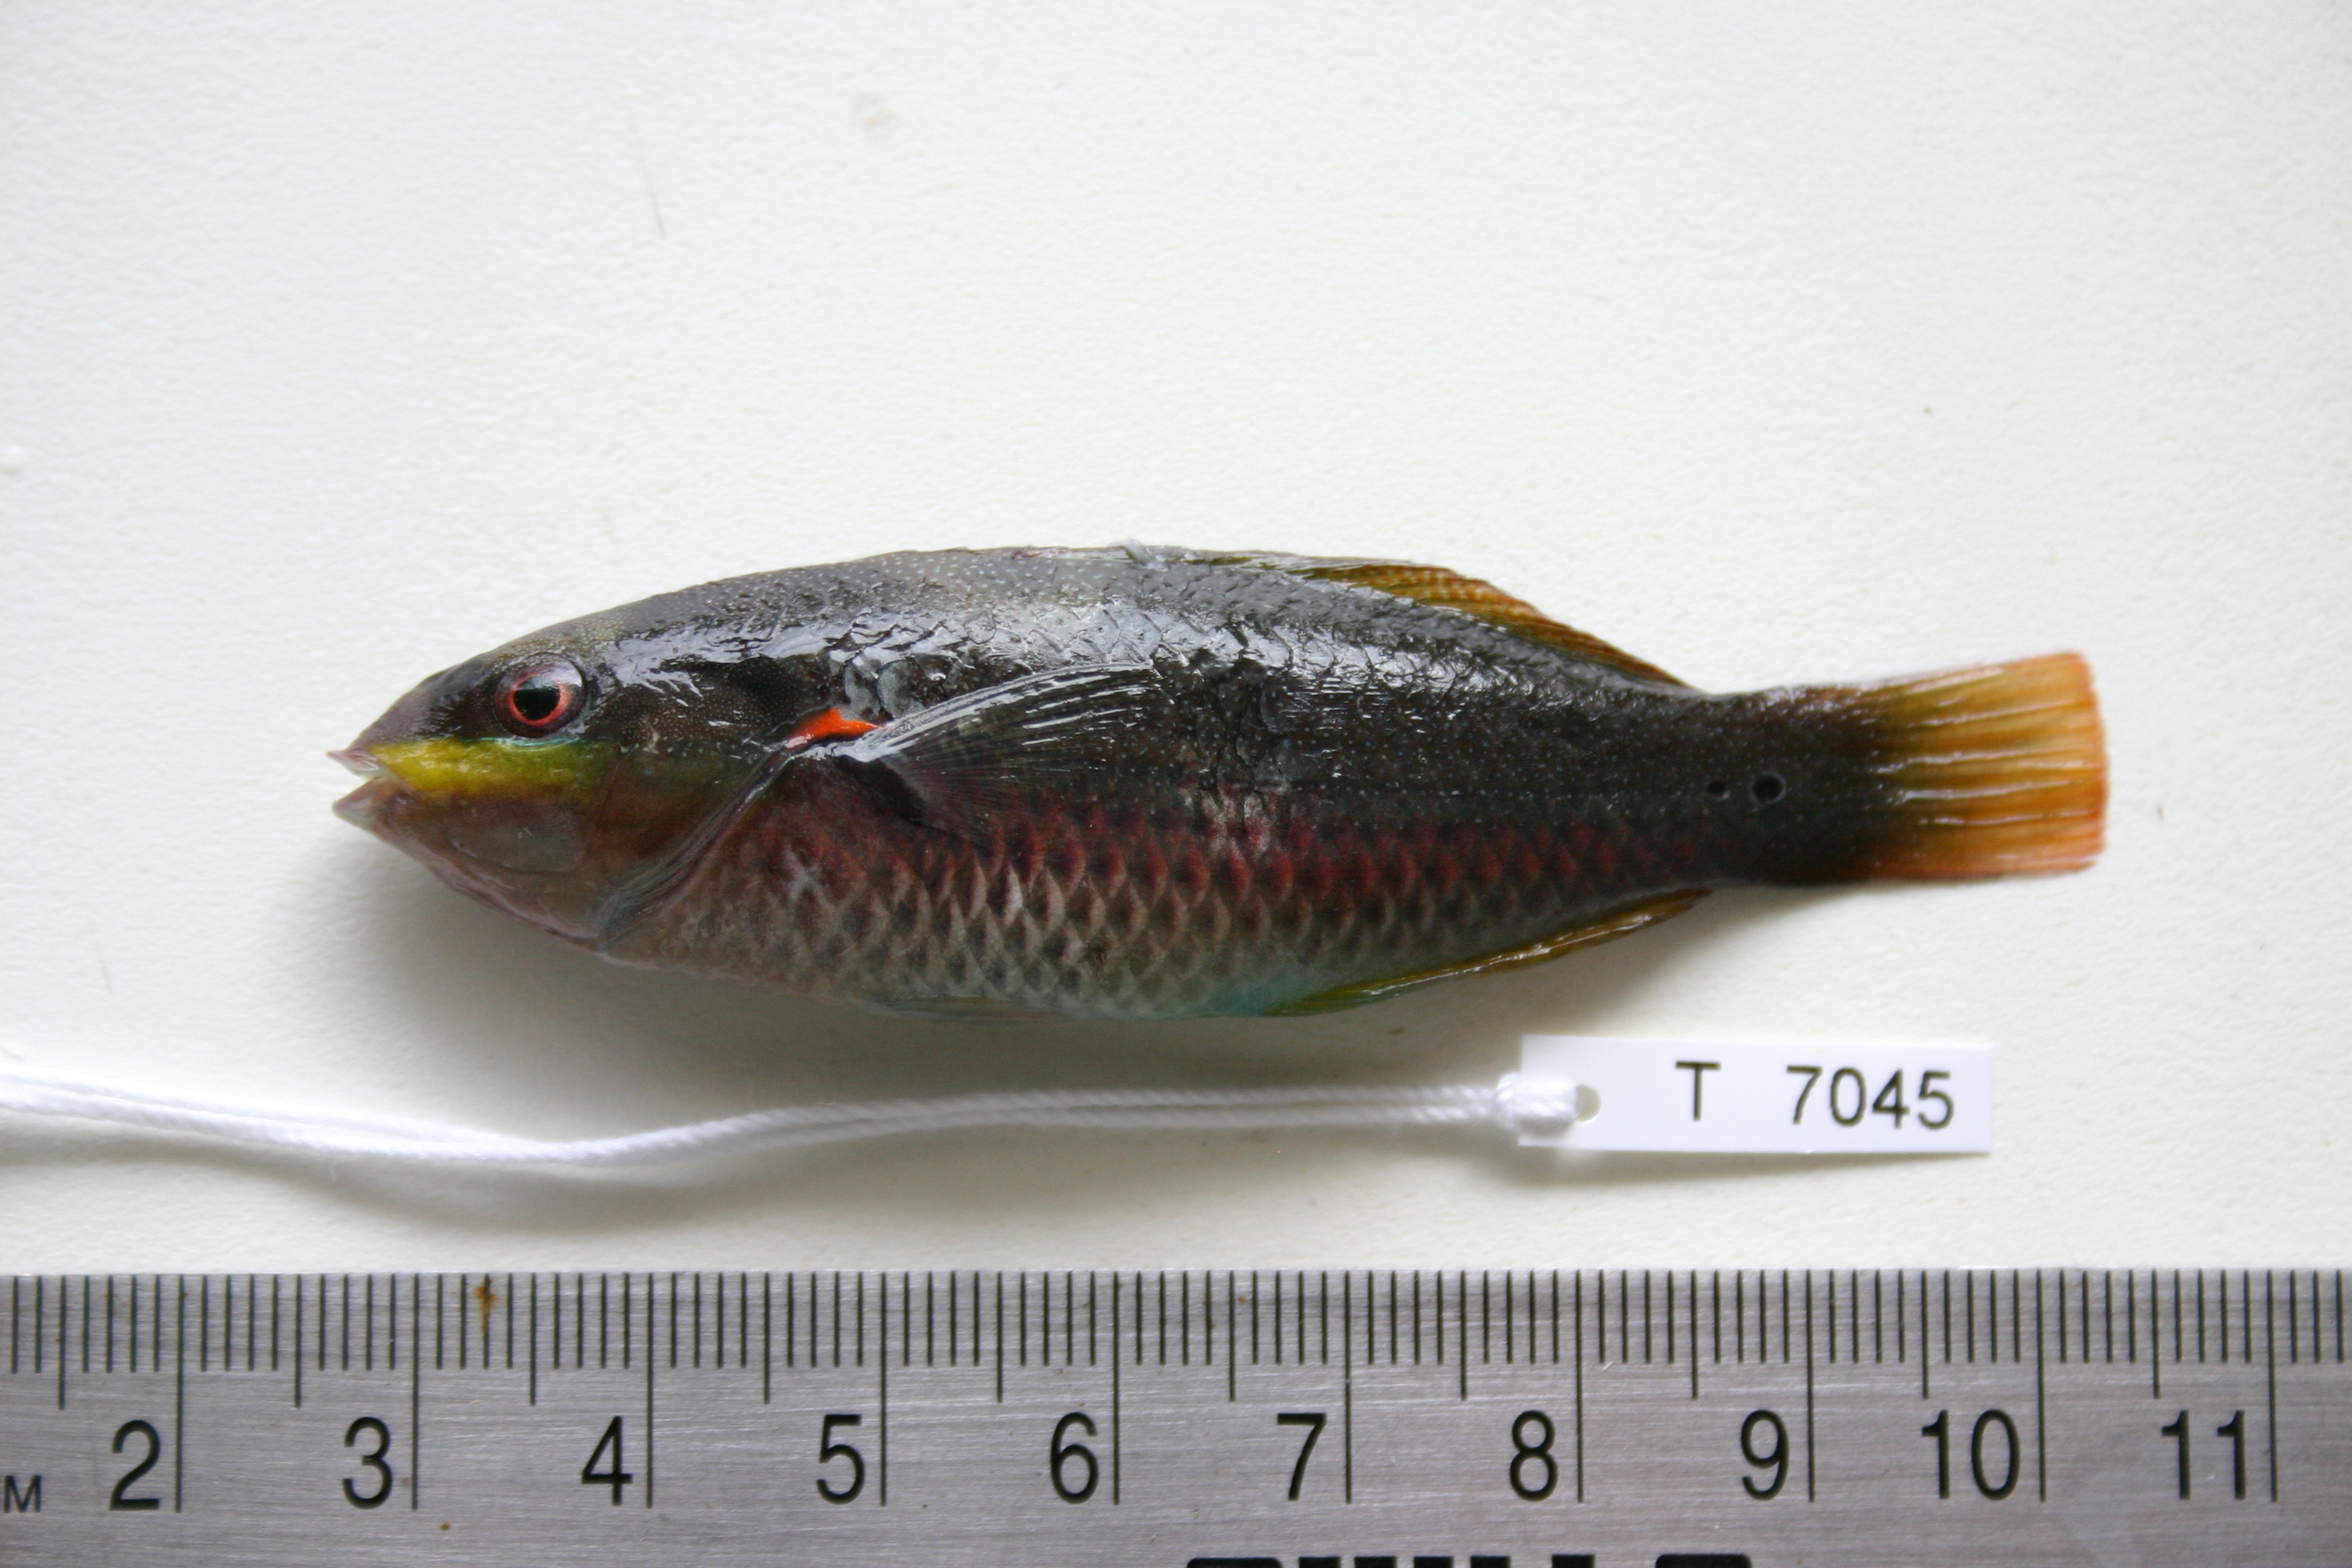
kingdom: Animalia
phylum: Chordata
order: Perciformes
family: Labridae
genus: Stethojulis
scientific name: Stethojulis albovittata
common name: Bluelined wrasse
